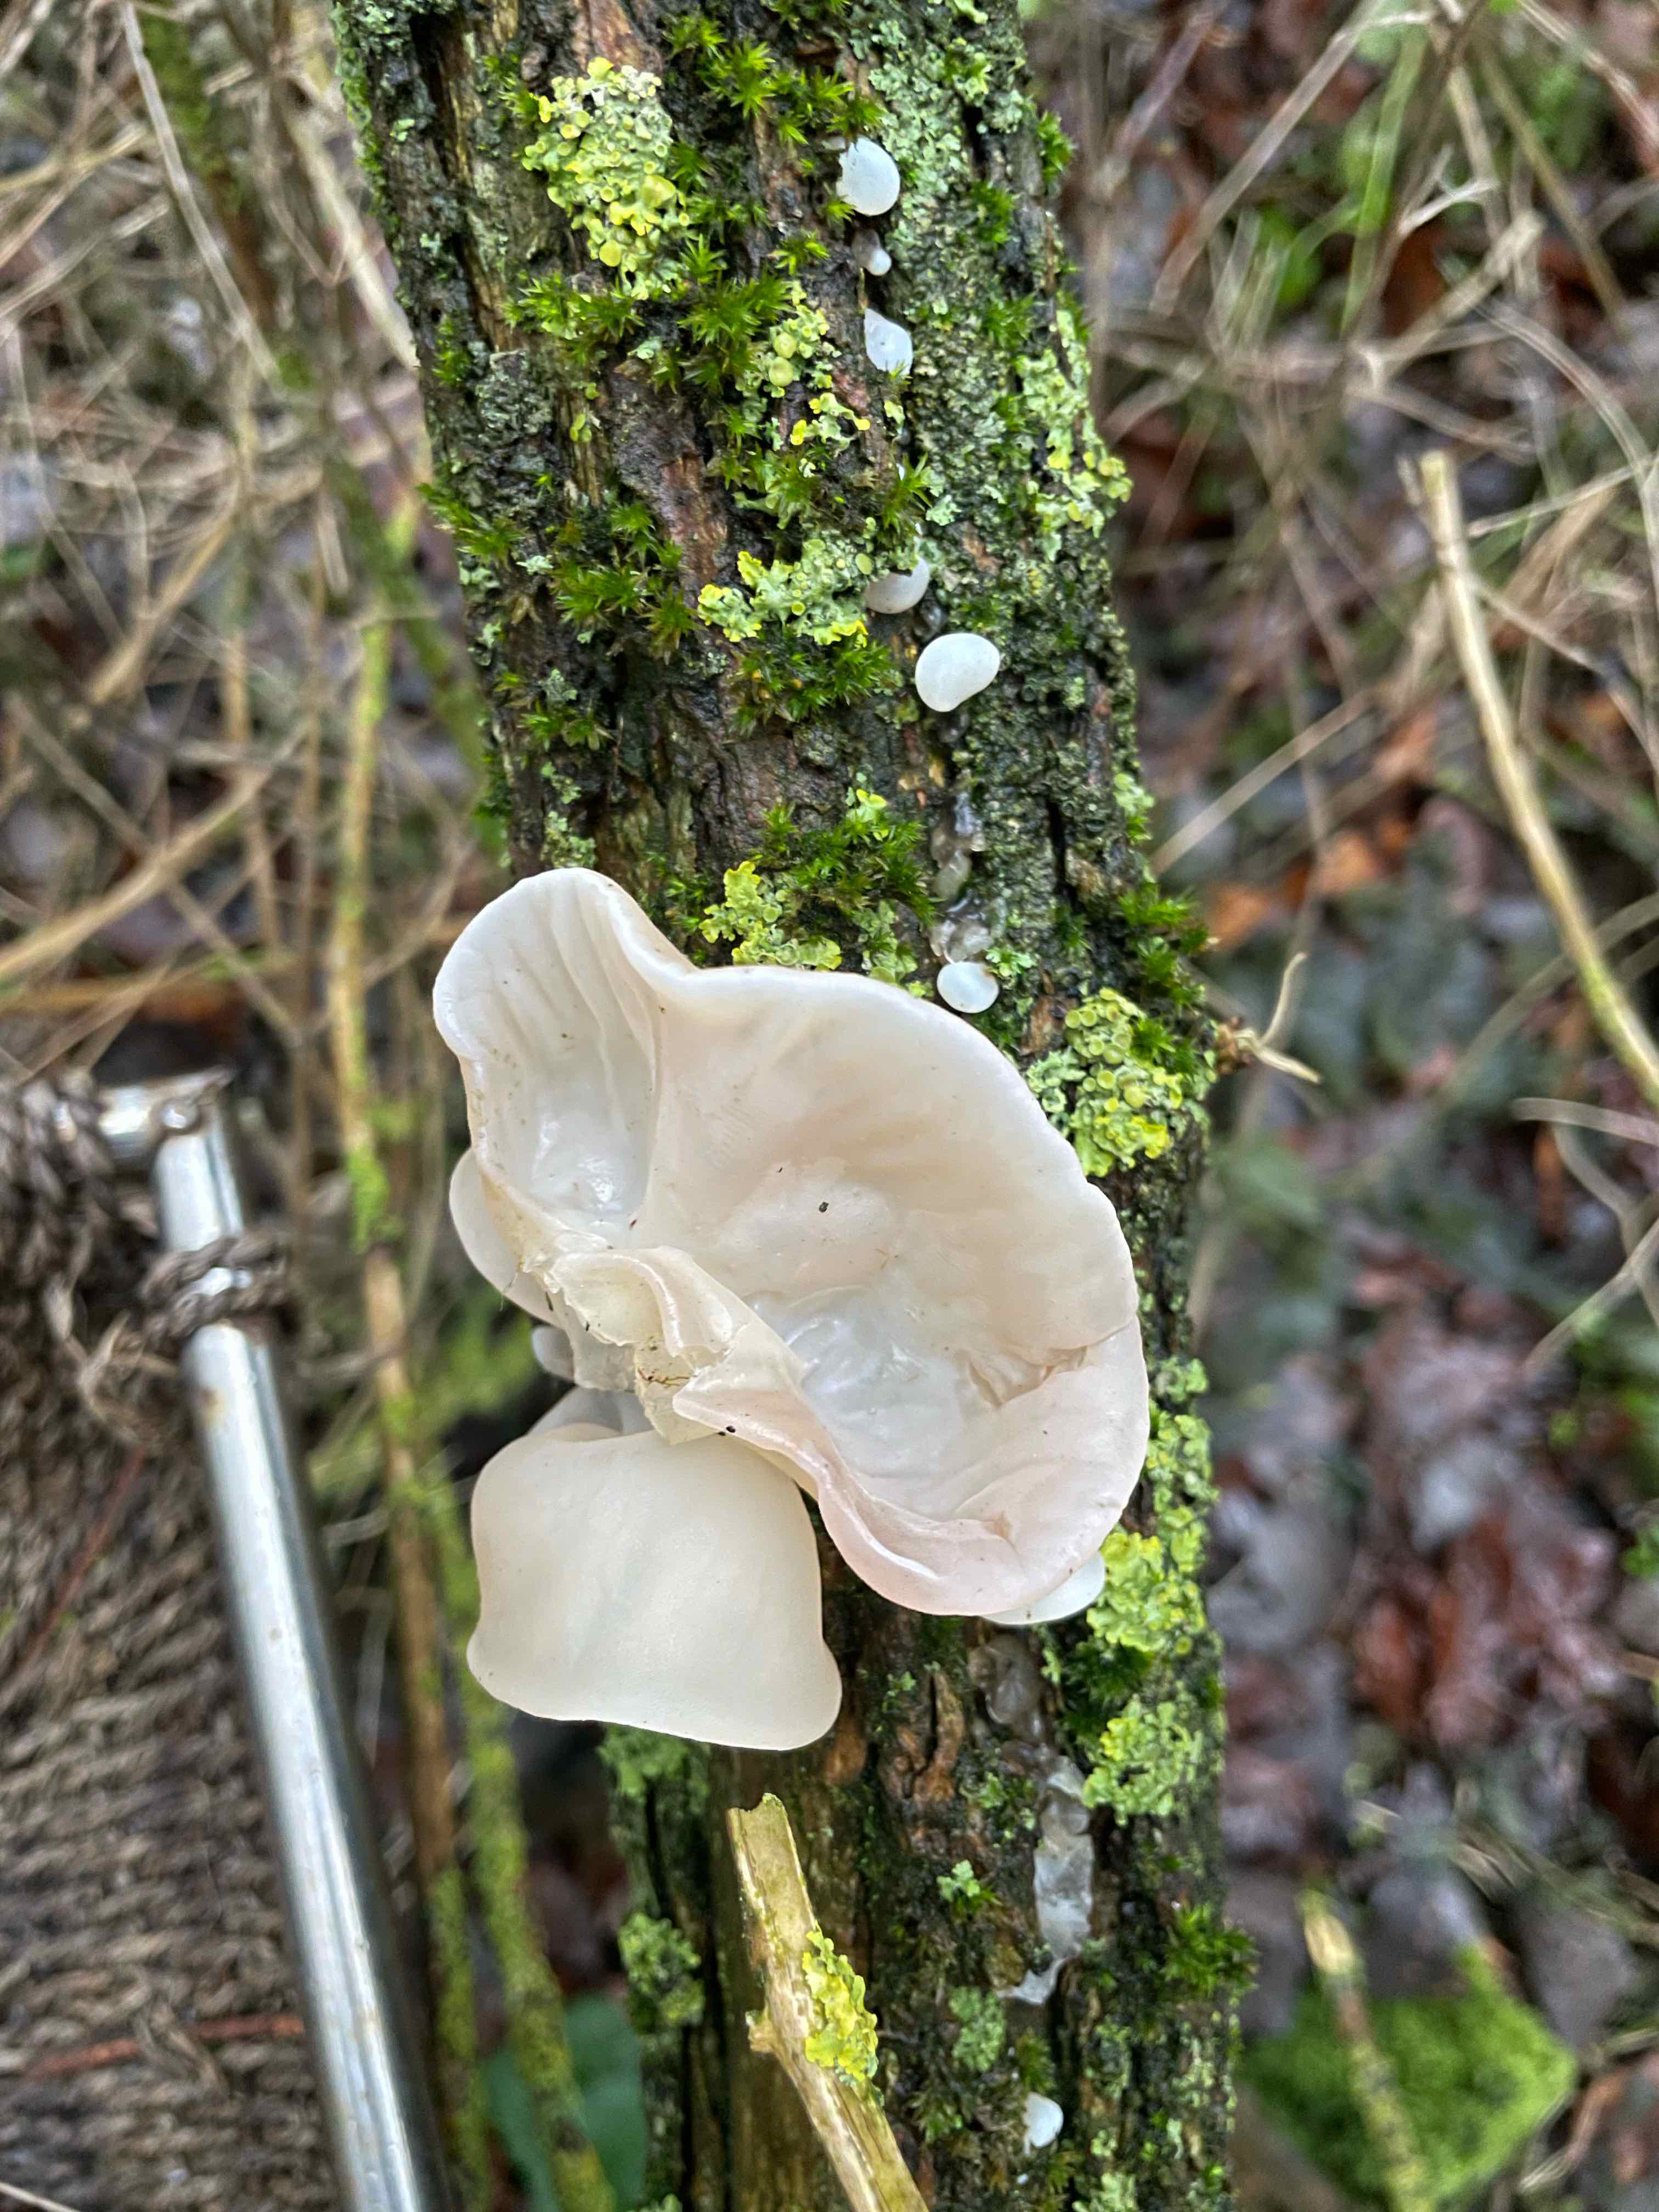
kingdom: Fungi
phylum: Basidiomycota
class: Agaricomycetes
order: Auriculariales
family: Auriculariaceae
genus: Auricularia
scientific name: Auricularia auricula-judae
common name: almindelig judasøre
